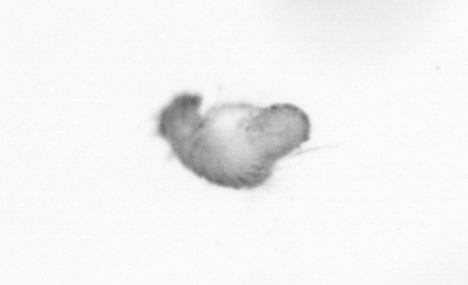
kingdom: Animalia
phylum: Annelida
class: Polychaeta
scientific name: Polychaeta
